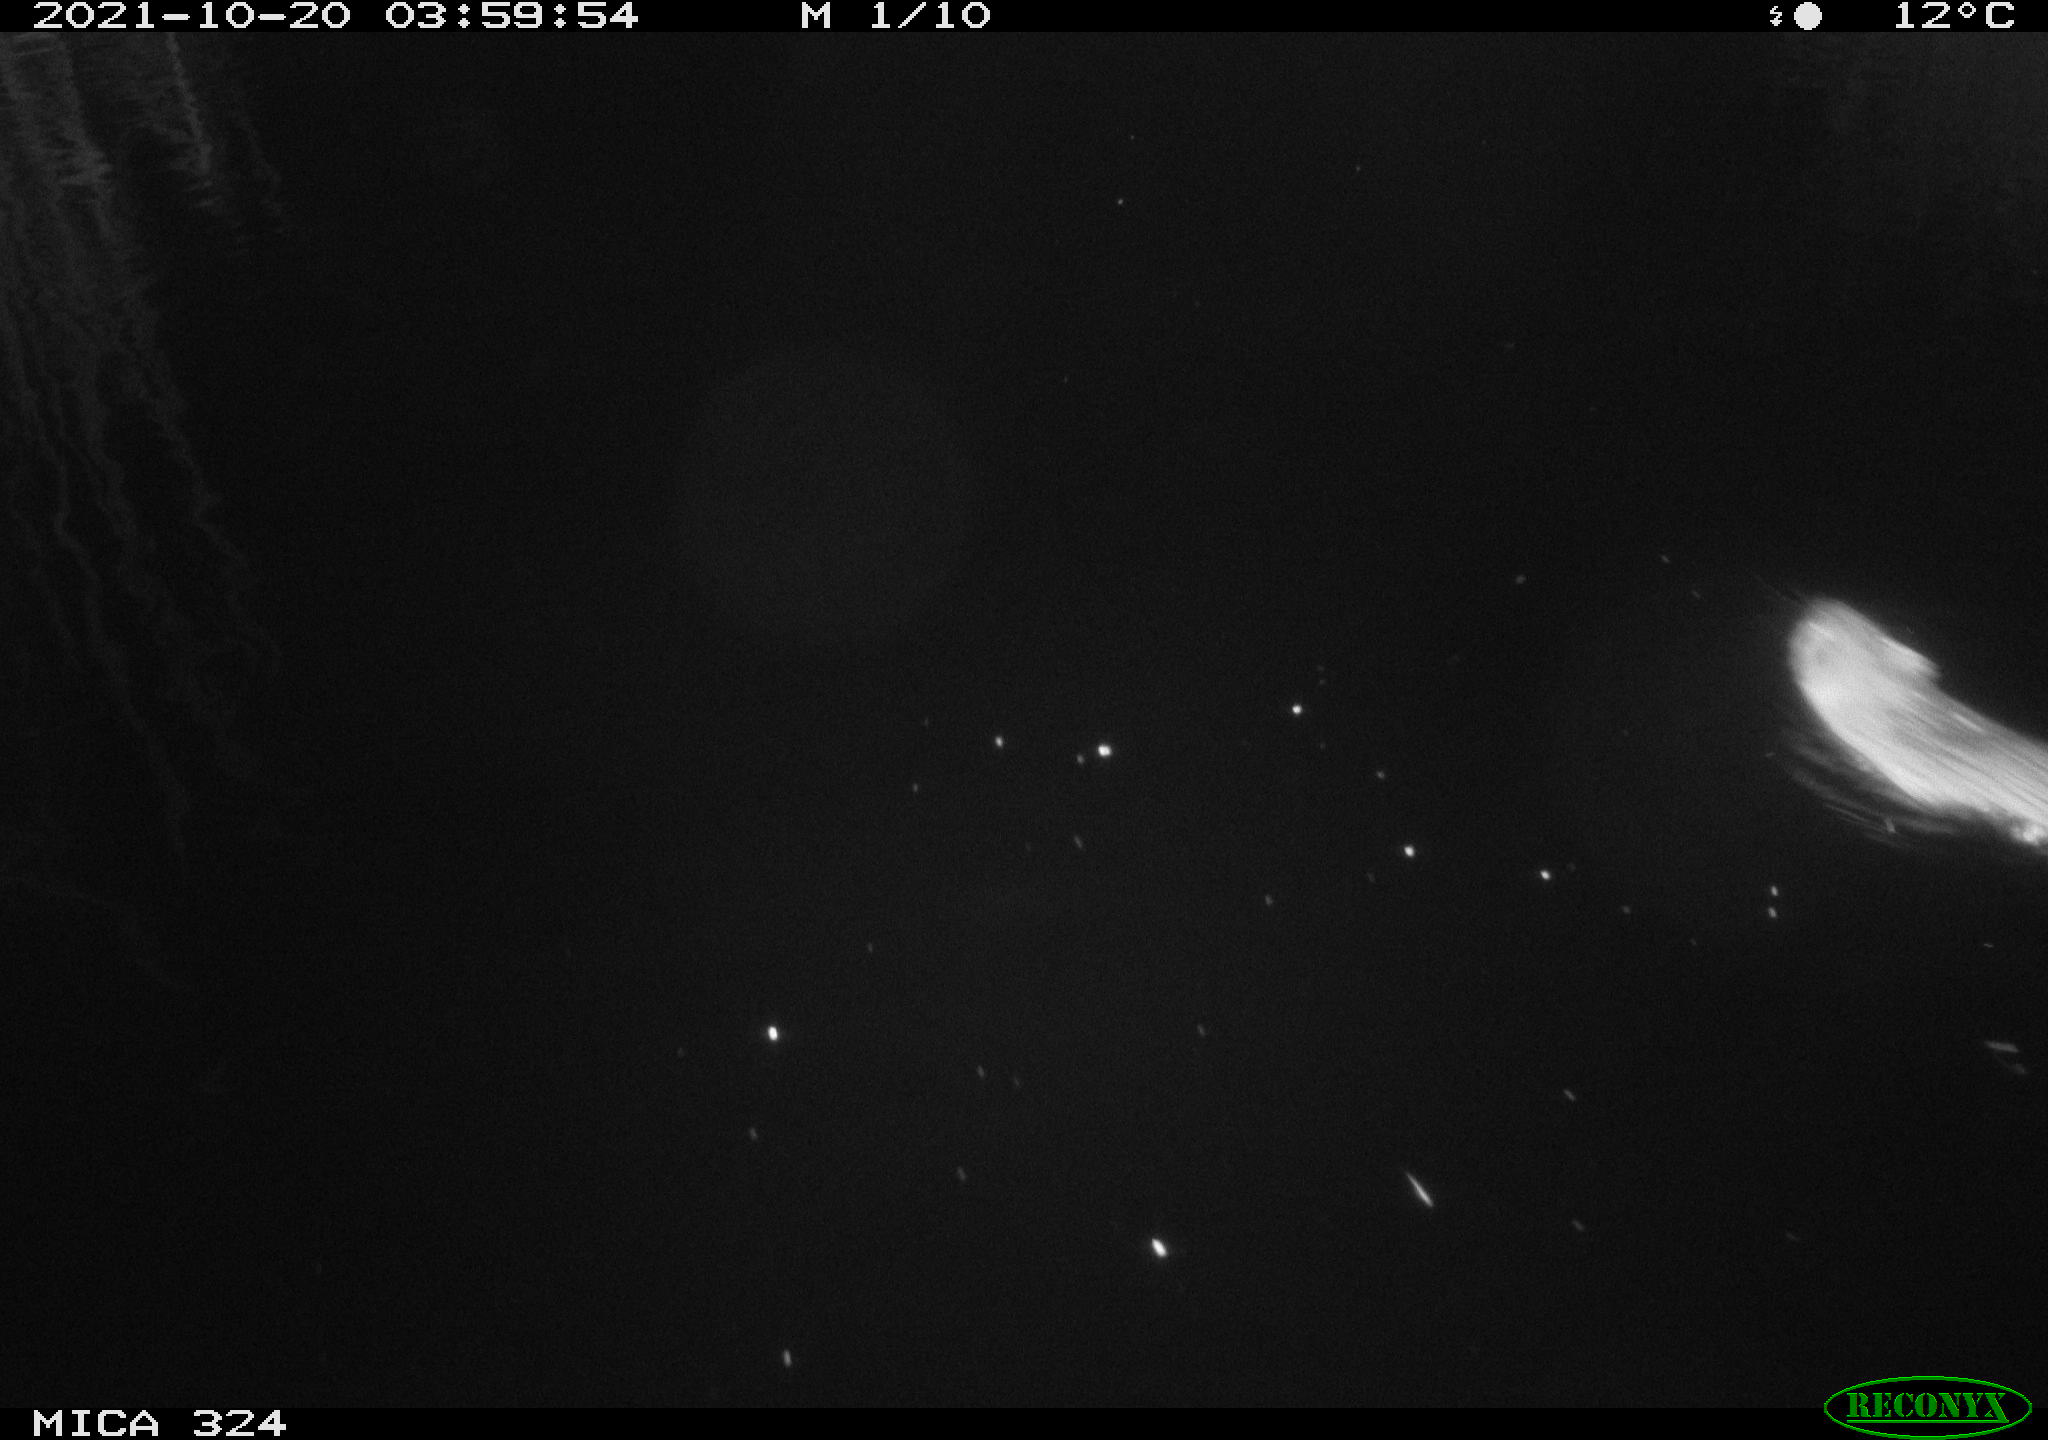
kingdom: Animalia
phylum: Chordata
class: Mammalia
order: Rodentia
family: Cricetidae
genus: Ondatra
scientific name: Ondatra zibethicus
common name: Muskrat
